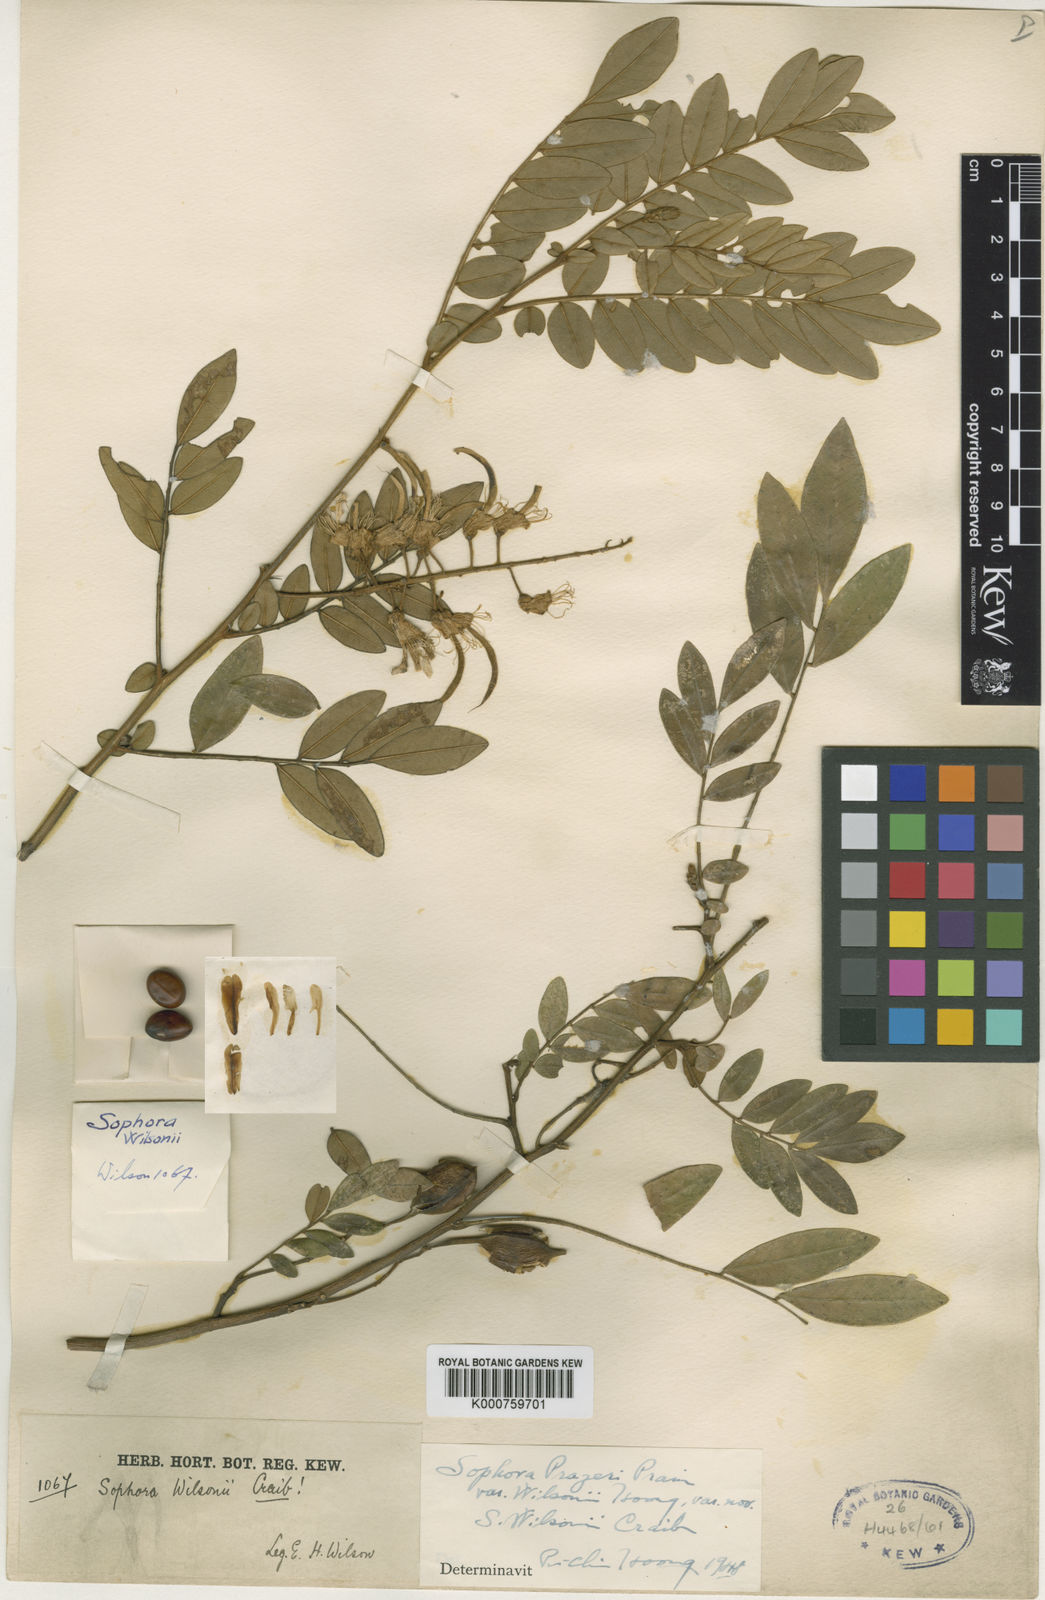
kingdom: Plantae
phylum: Tracheophyta
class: Magnoliopsida
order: Fabales
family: Fabaceae
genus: Sophora
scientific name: Sophora wightii
